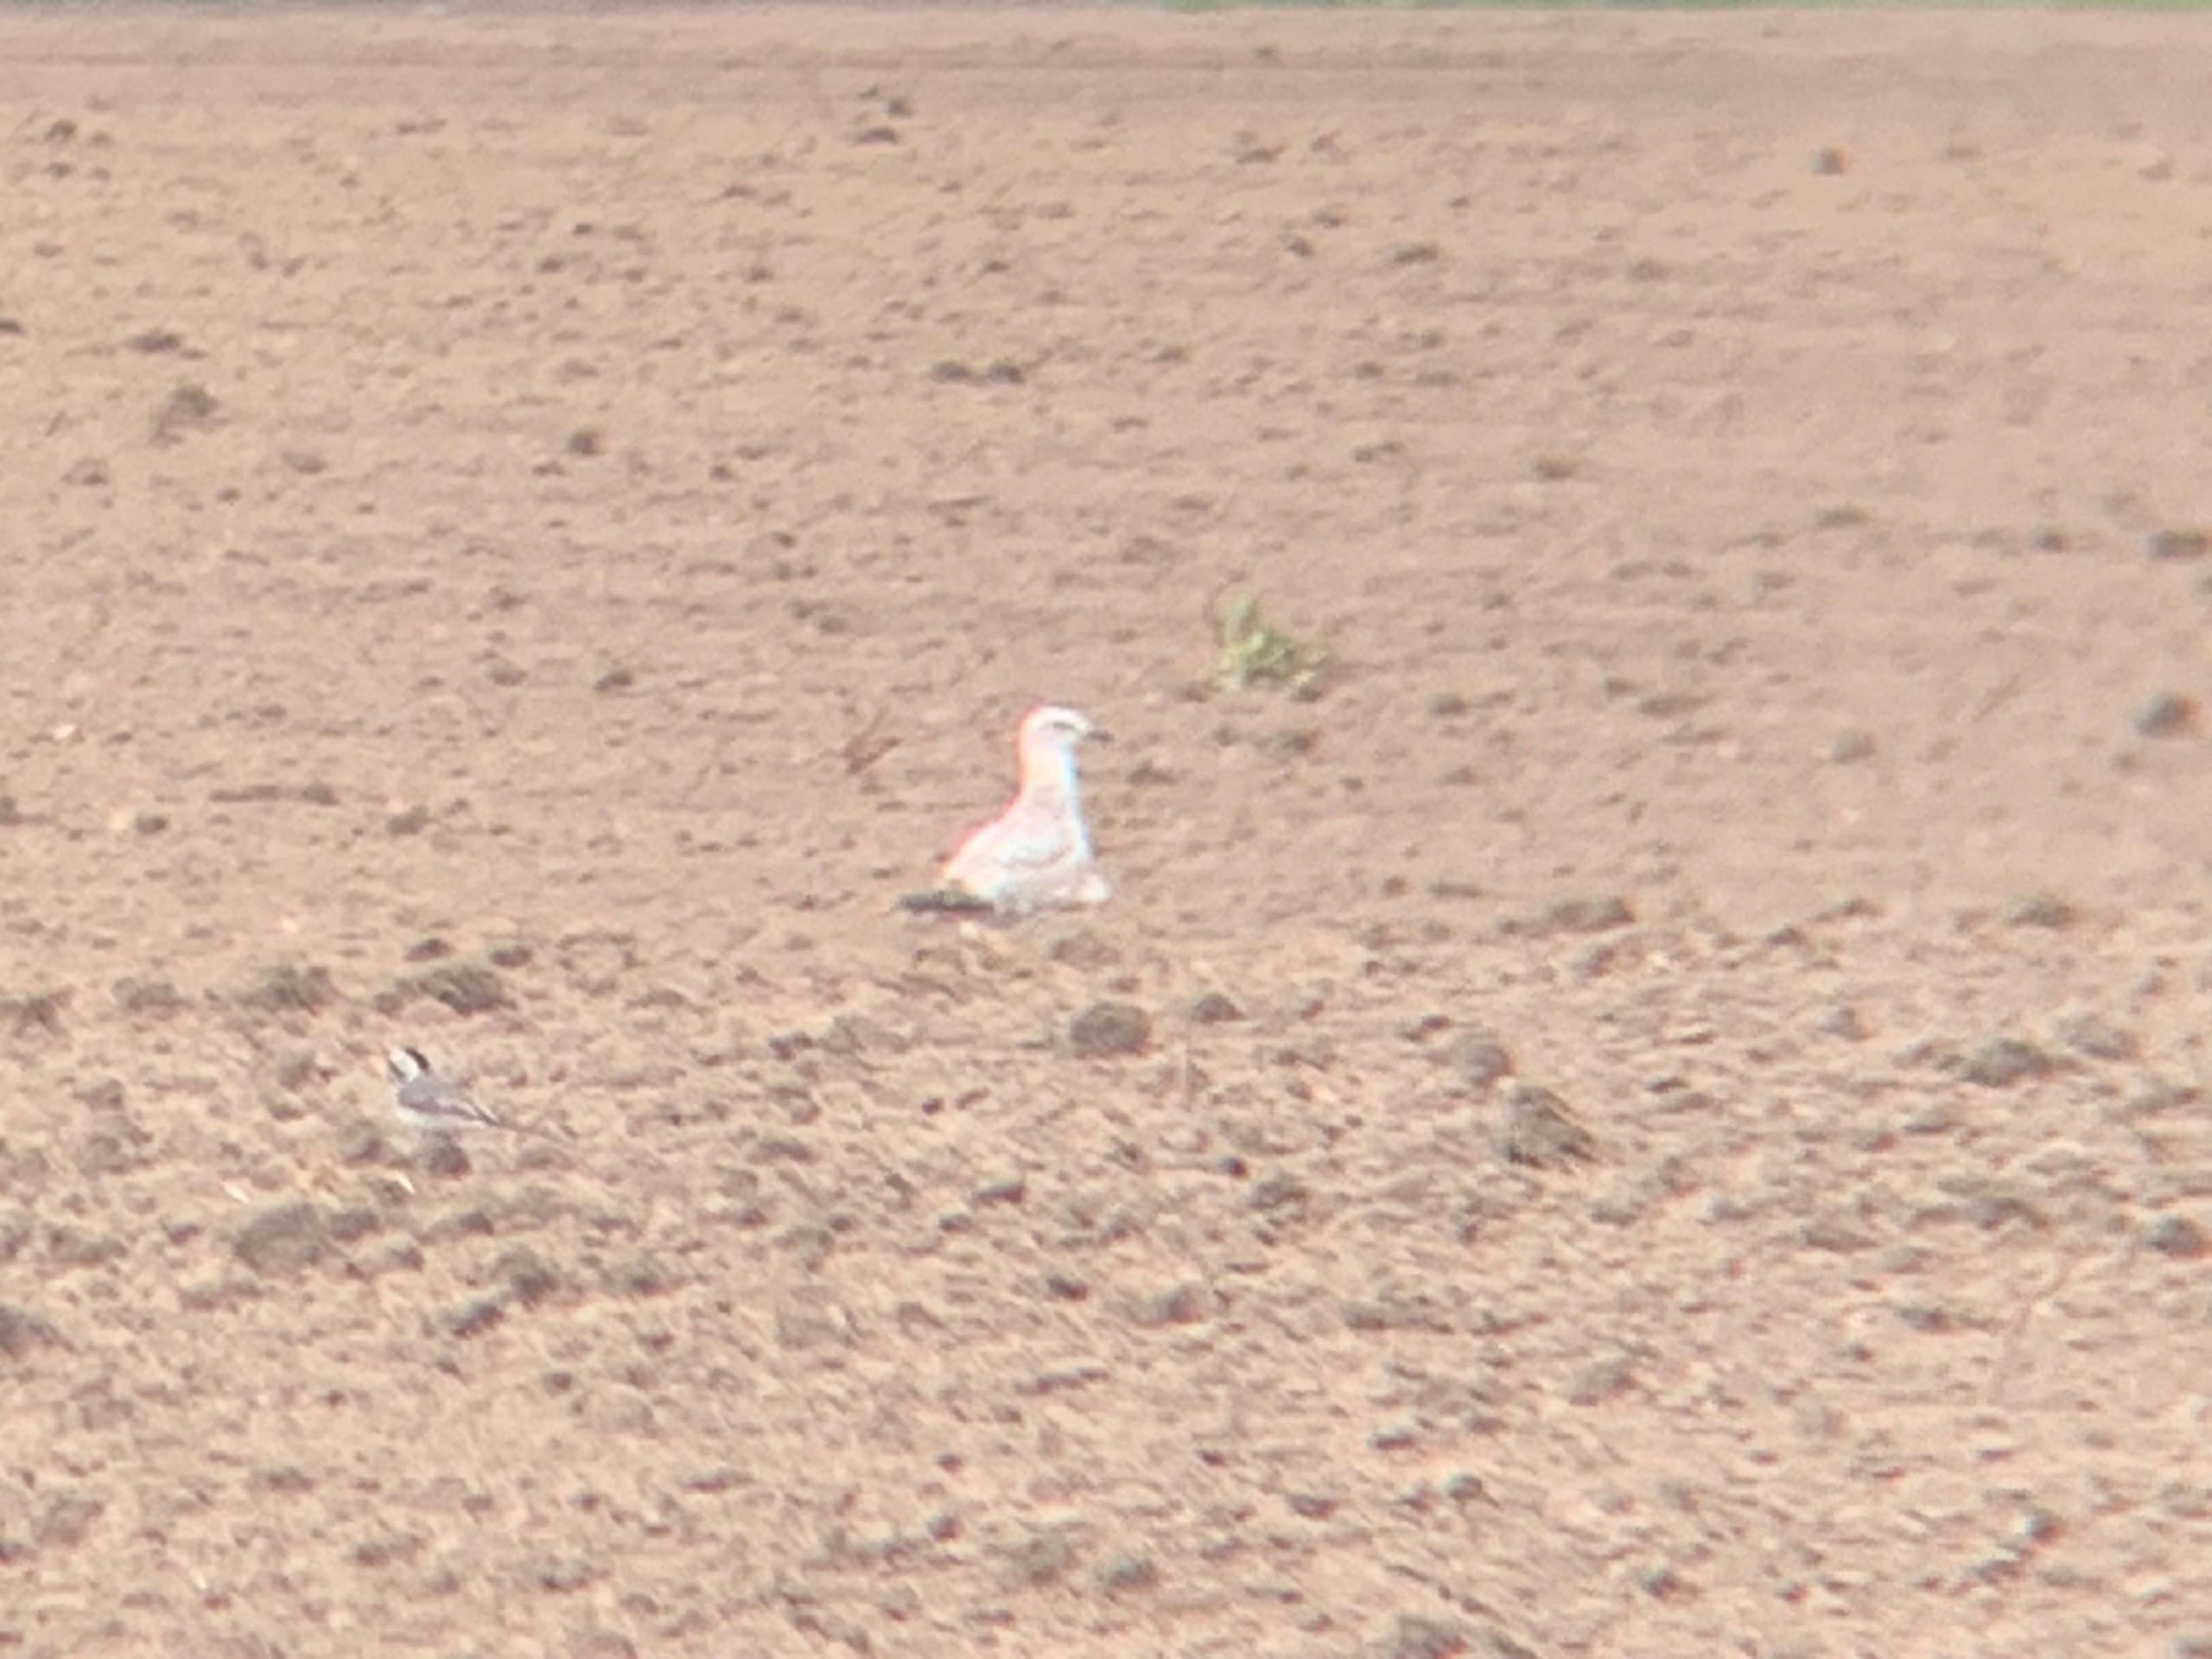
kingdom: Animalia
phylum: Chordata
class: Aves
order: Charadriiformes
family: Laridae
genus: Larus
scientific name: Larus argentatus
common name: Sølvmåge
